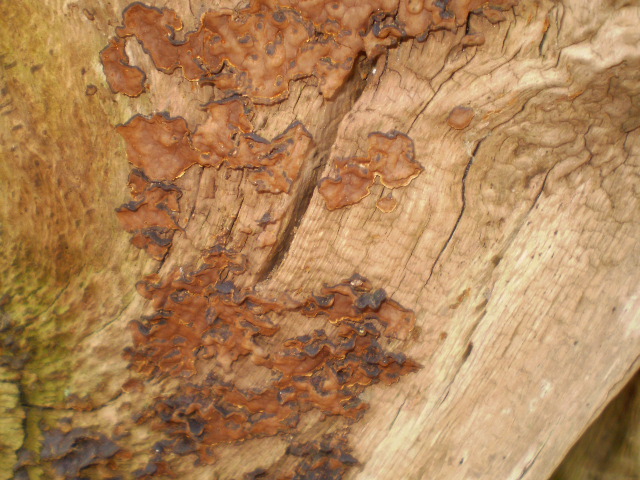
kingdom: Fungi
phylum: Basidiomycota
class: Agaricomycetes
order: Hymenochaetales
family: Hymenochaetaceae
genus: Hymenochaete
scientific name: Hymenochaete rubiginosa
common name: stiv ruslædersvamp
